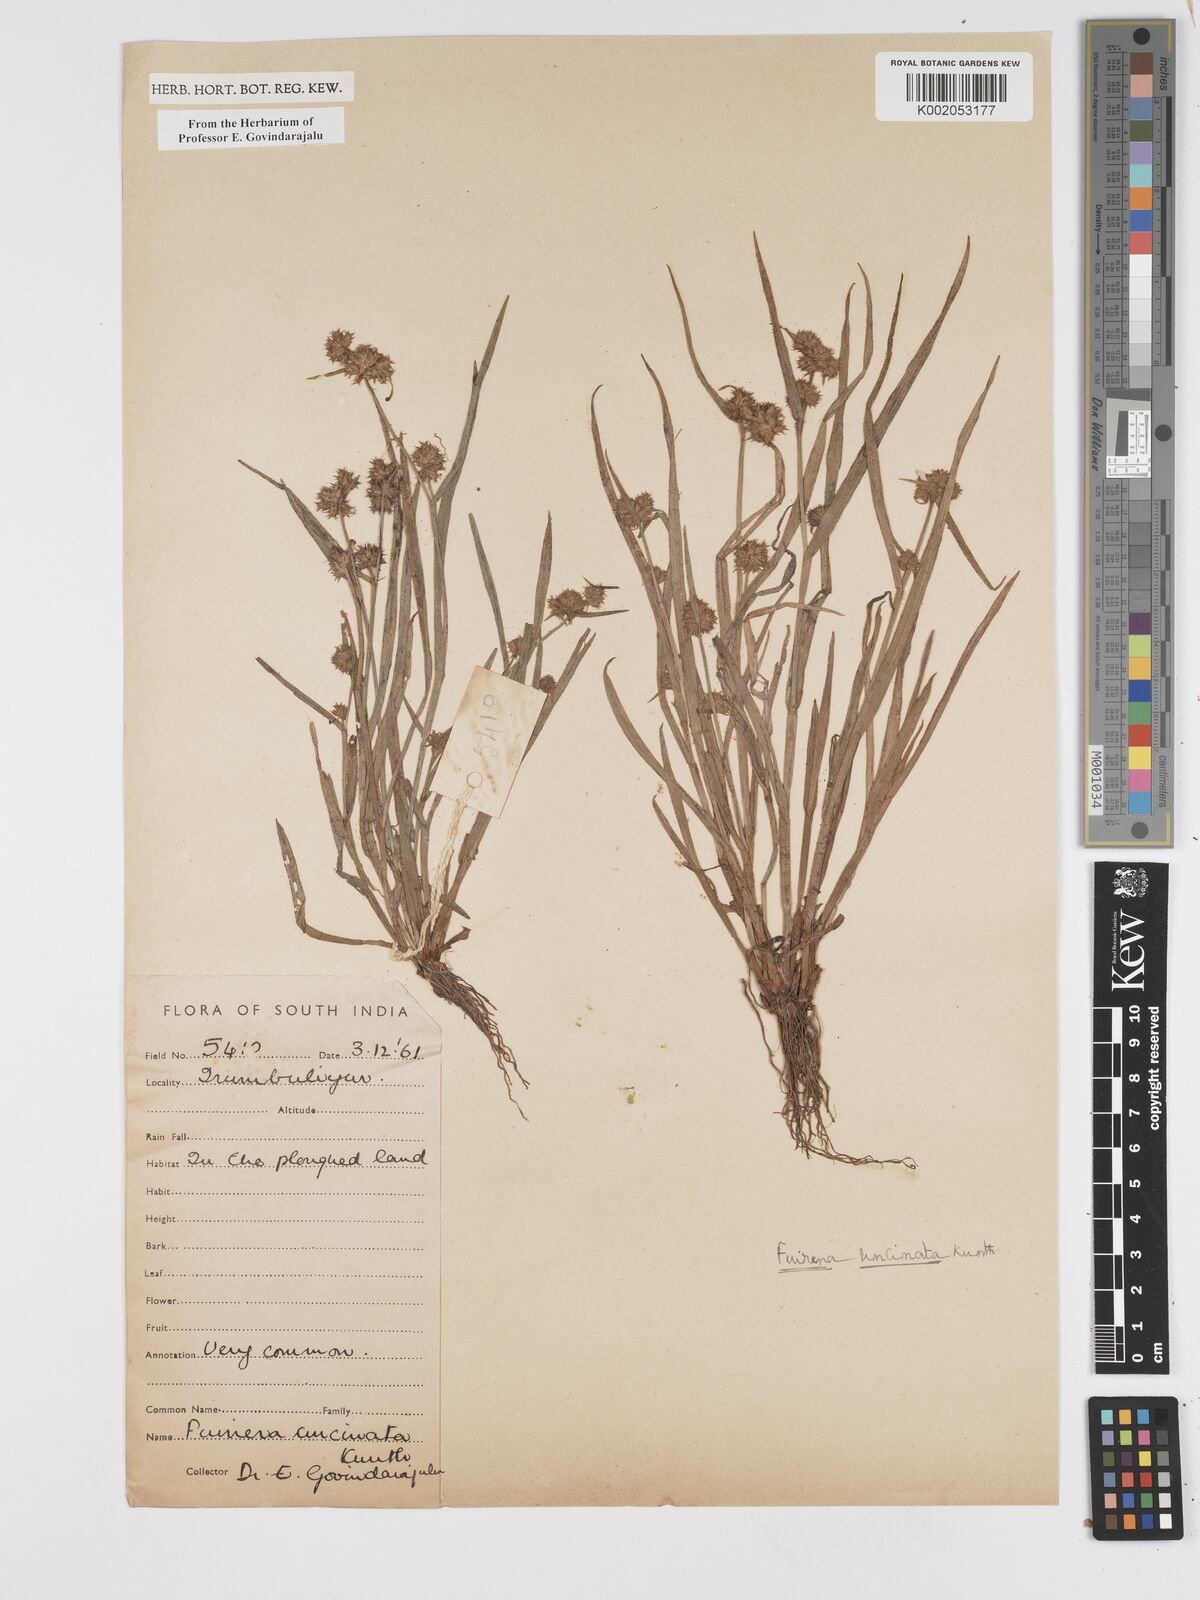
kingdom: Plantae
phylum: Tracheophyta
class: Liliopsida
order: Poales
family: Cyperaceae
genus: Fuirena
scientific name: Fuirena uncinata
